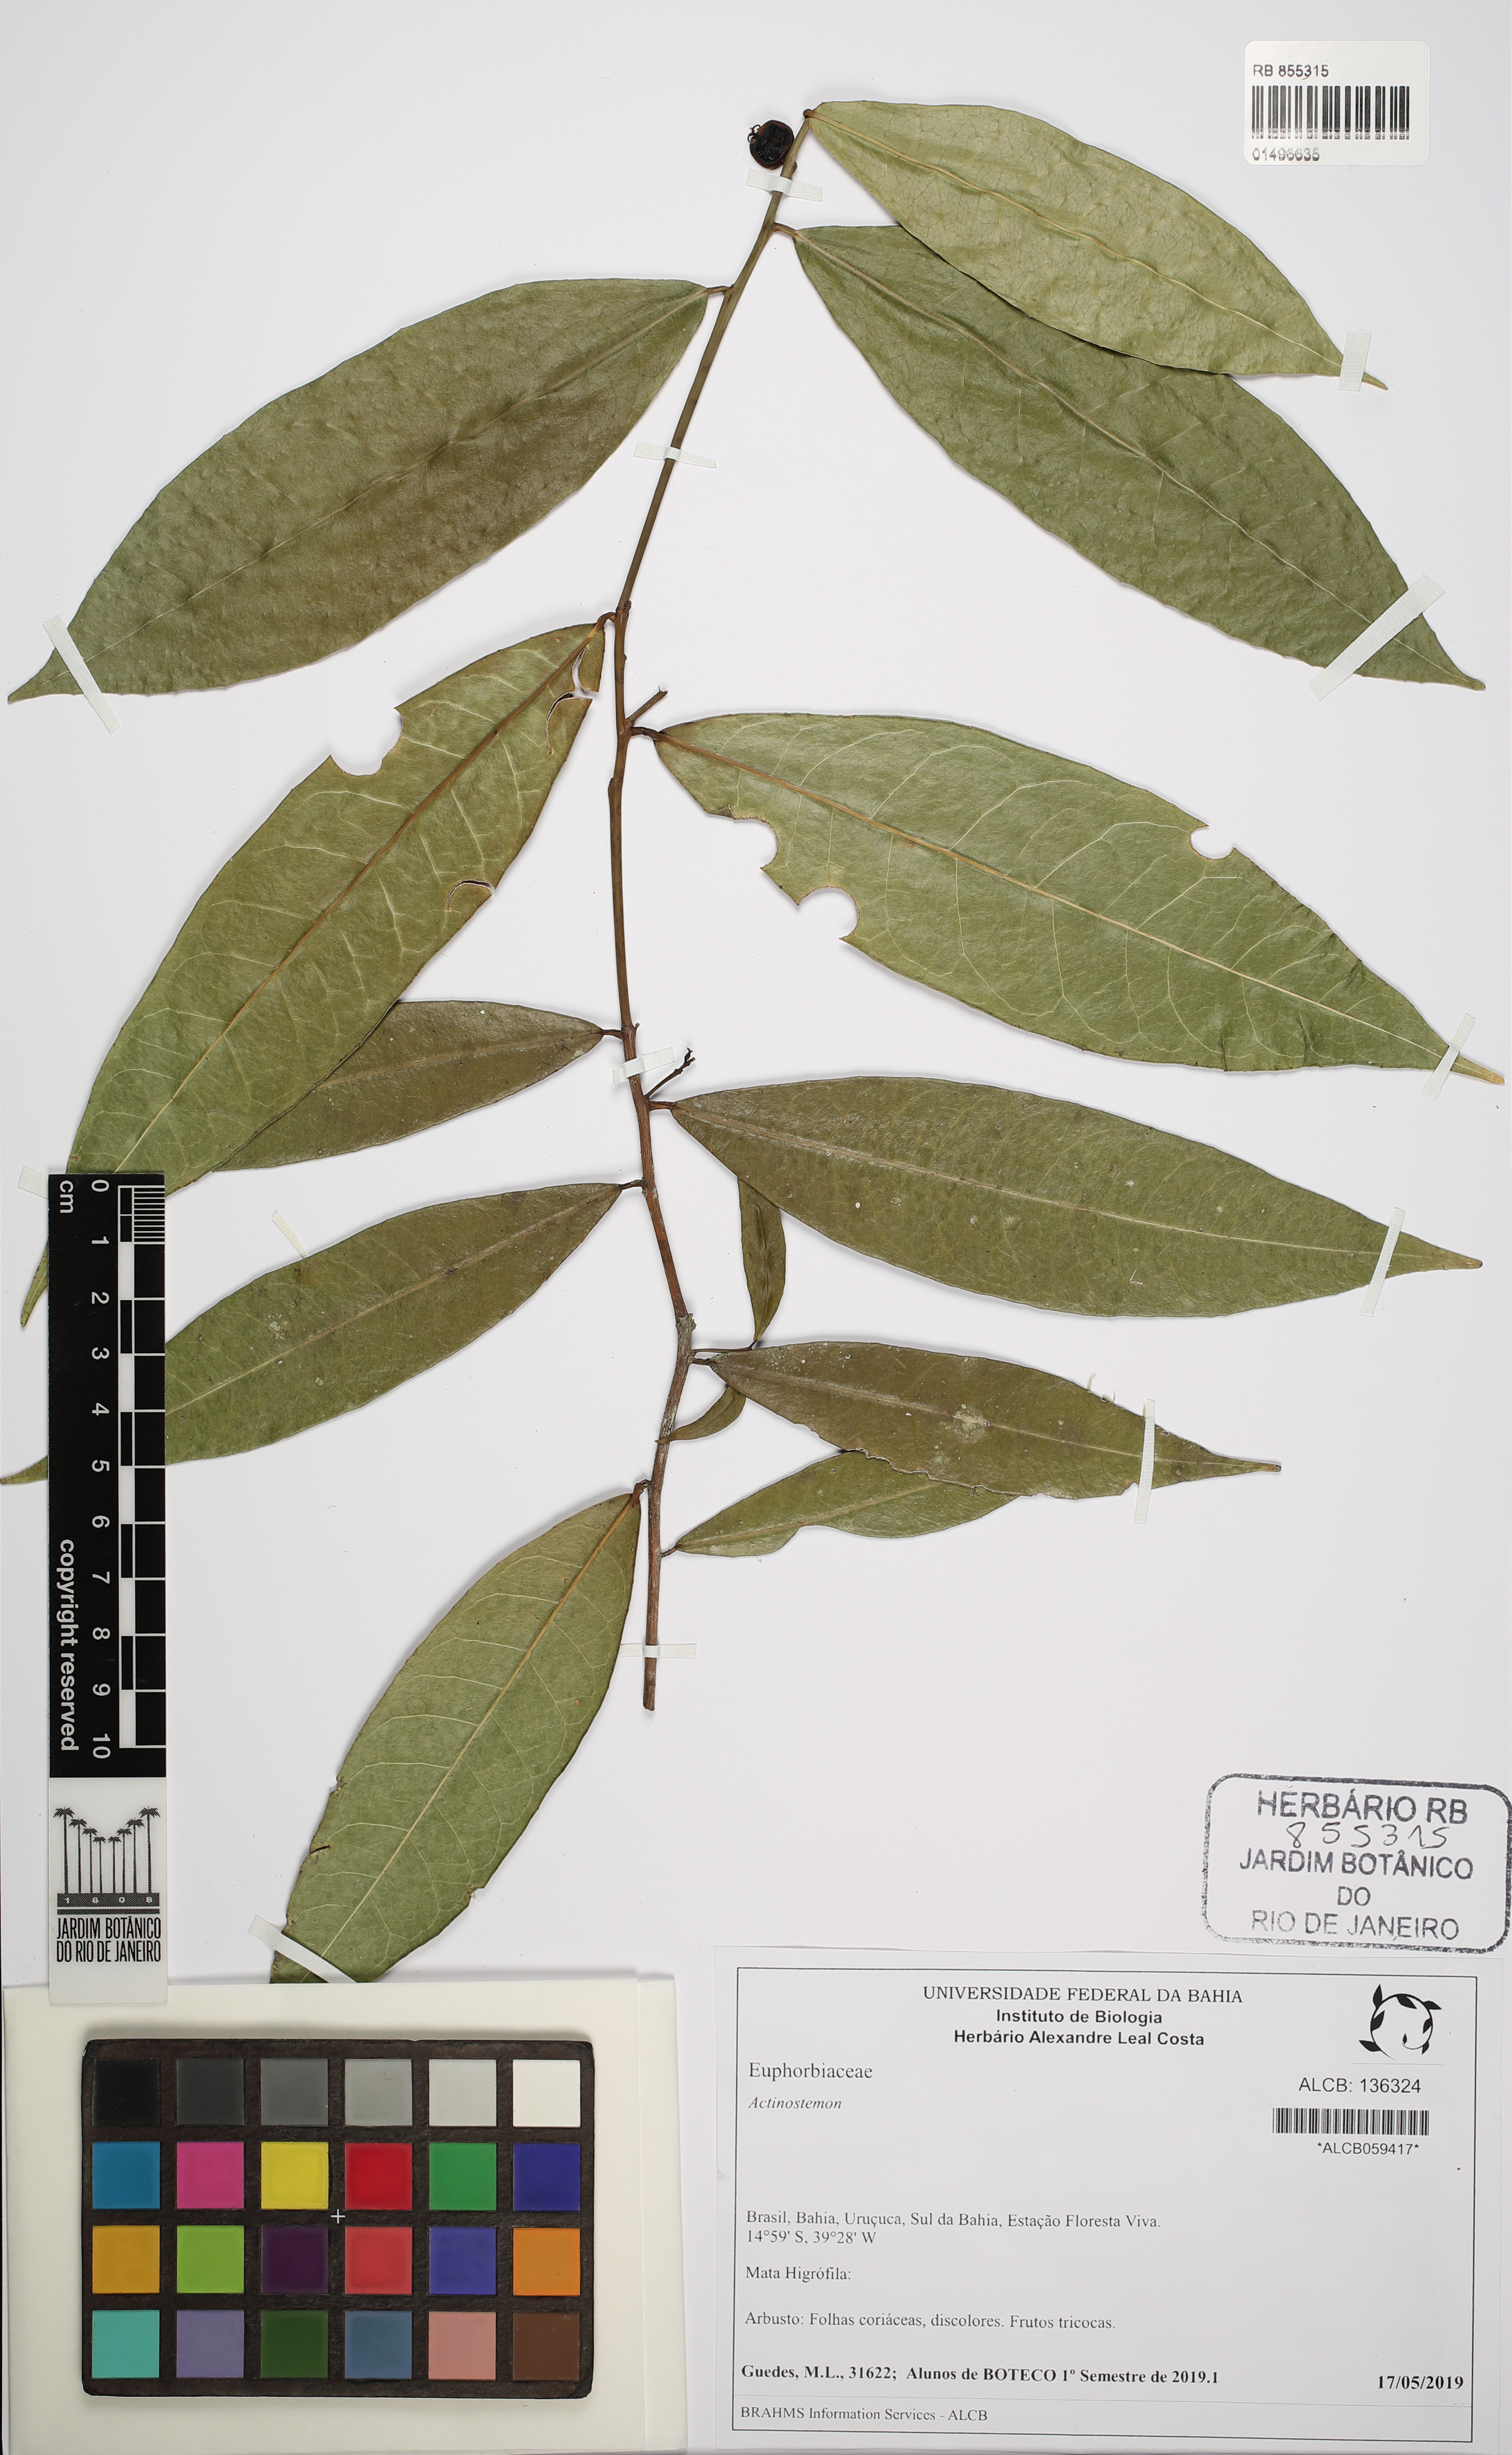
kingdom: Plantae
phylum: Tracheophyta
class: Magnoliopsida
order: Malpighiales
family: Euphorbiaceae
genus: Actinostemon
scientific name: Actinostemon
